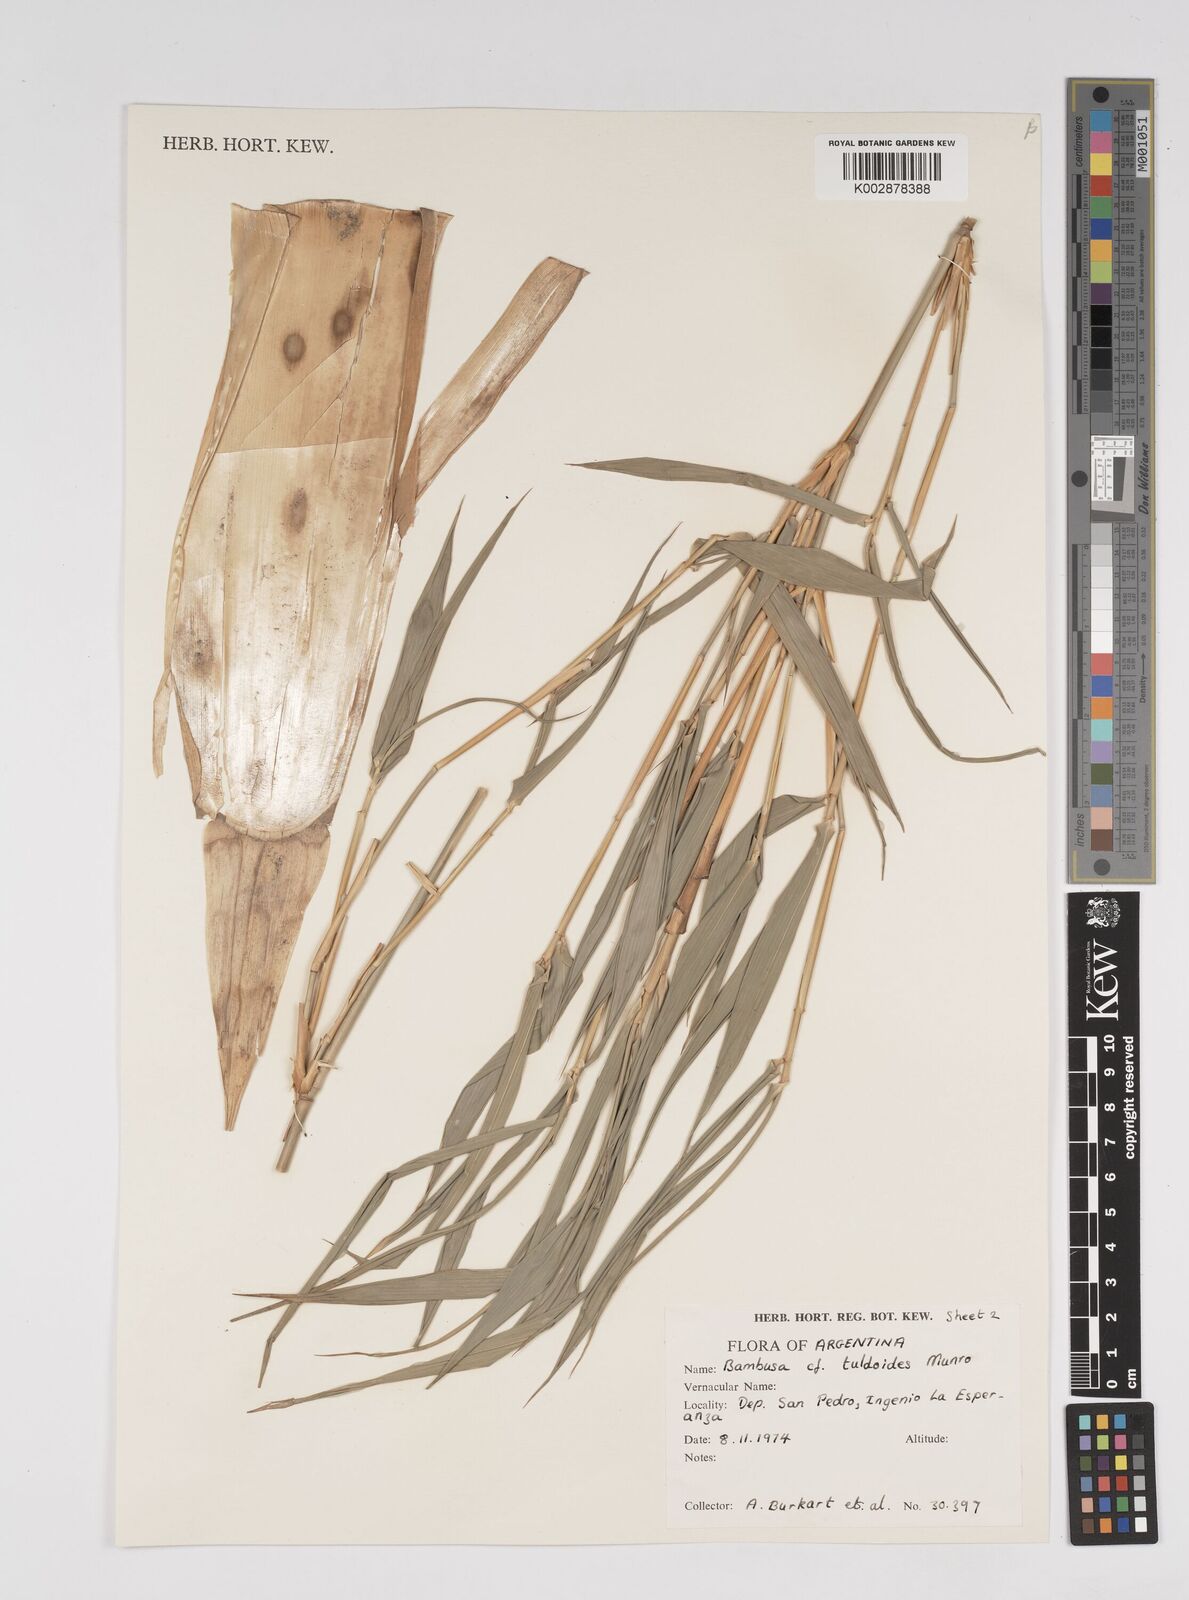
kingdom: Plantae
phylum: Tracheophyta
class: Liliopsida
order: Poales
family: Poaceae
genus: Bambusa
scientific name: Bambusa
